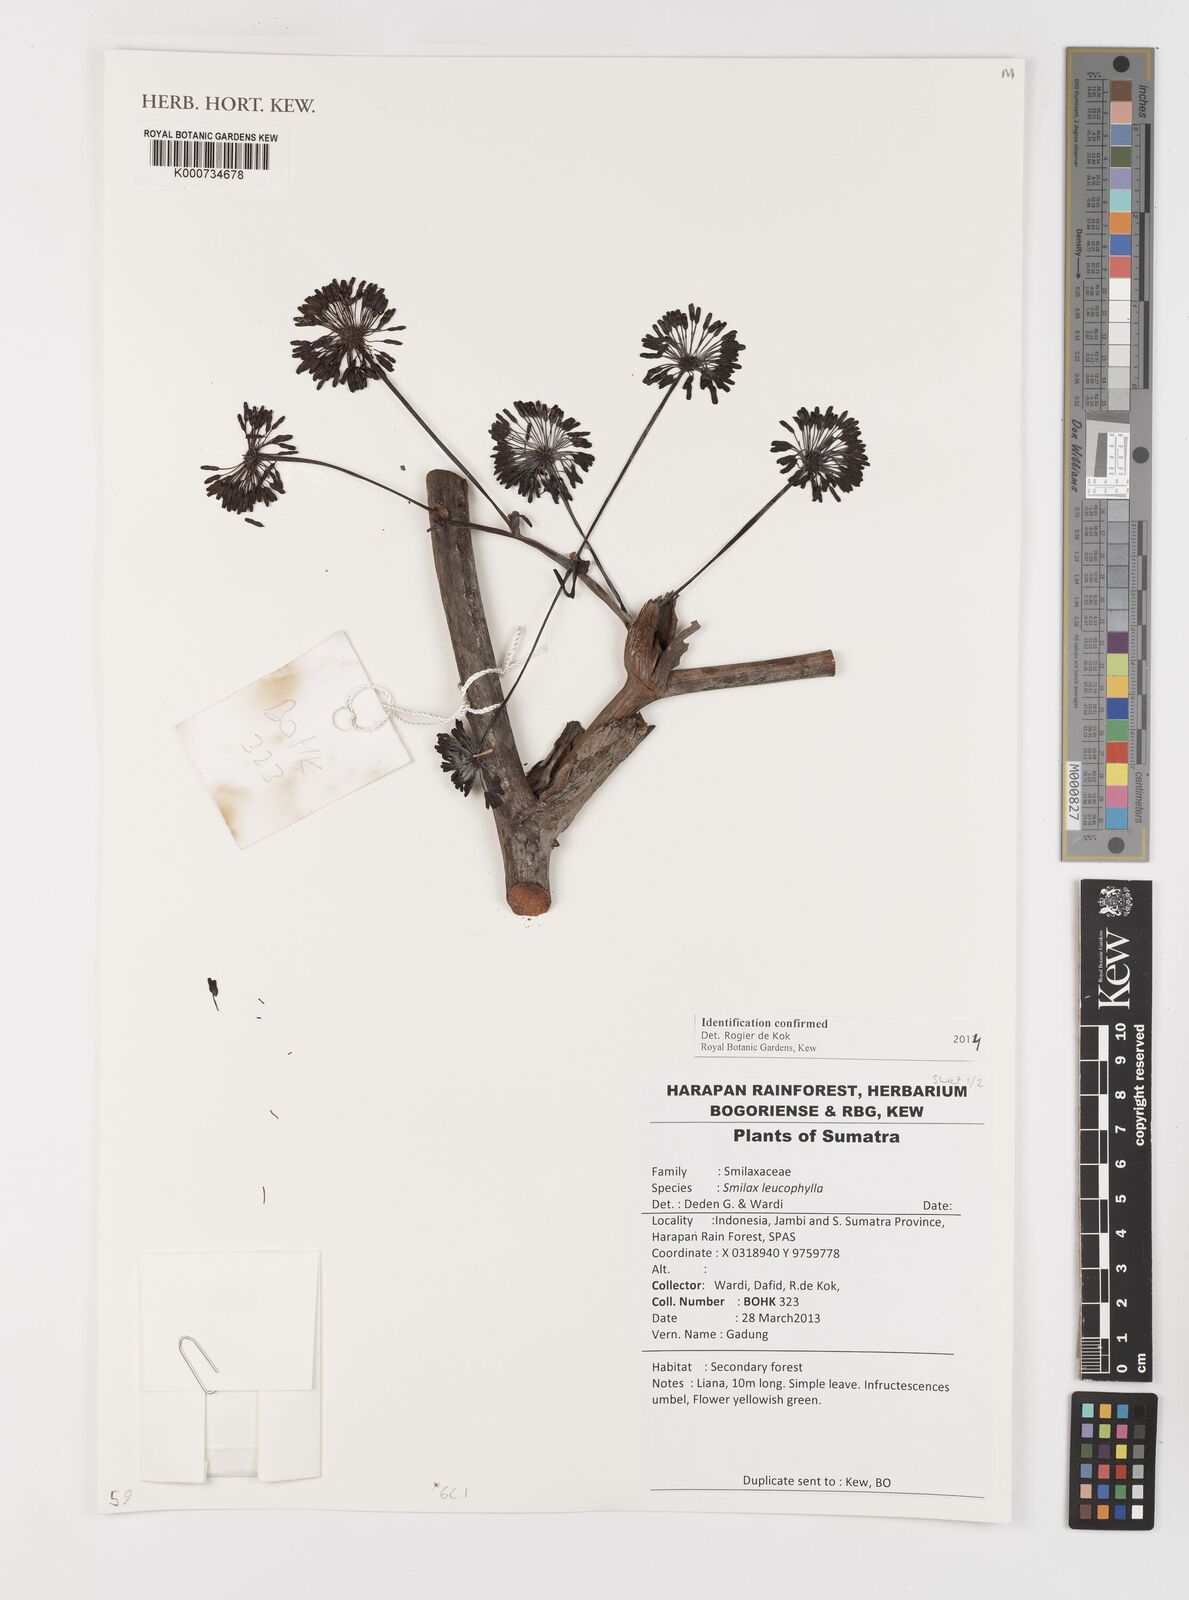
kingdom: Plantae
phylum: Tracheophyta
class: Liliopsida
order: Liliales
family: Smilacaceae
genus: Smilax
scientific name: Smilax leucophylla
